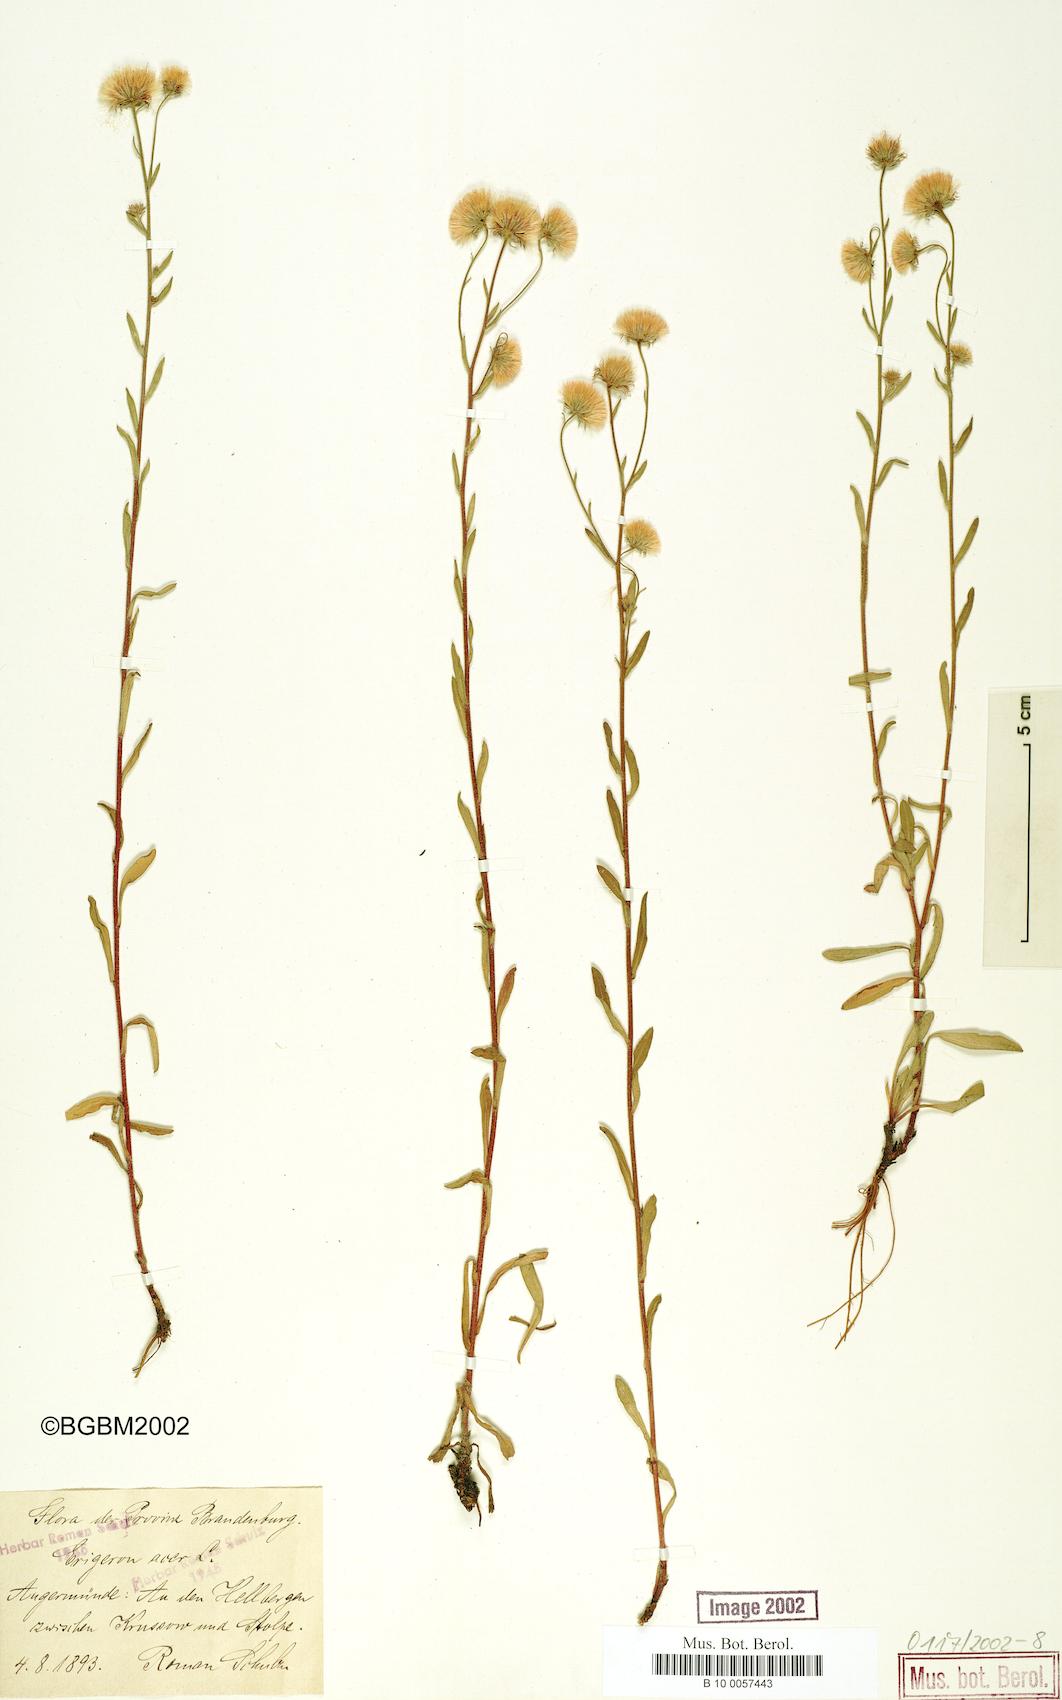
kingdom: Plantae
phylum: Tracheophyta
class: Magnoliopsida
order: Asterales
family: Asteraceae
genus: Erigeron
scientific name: Erigeron muralis
